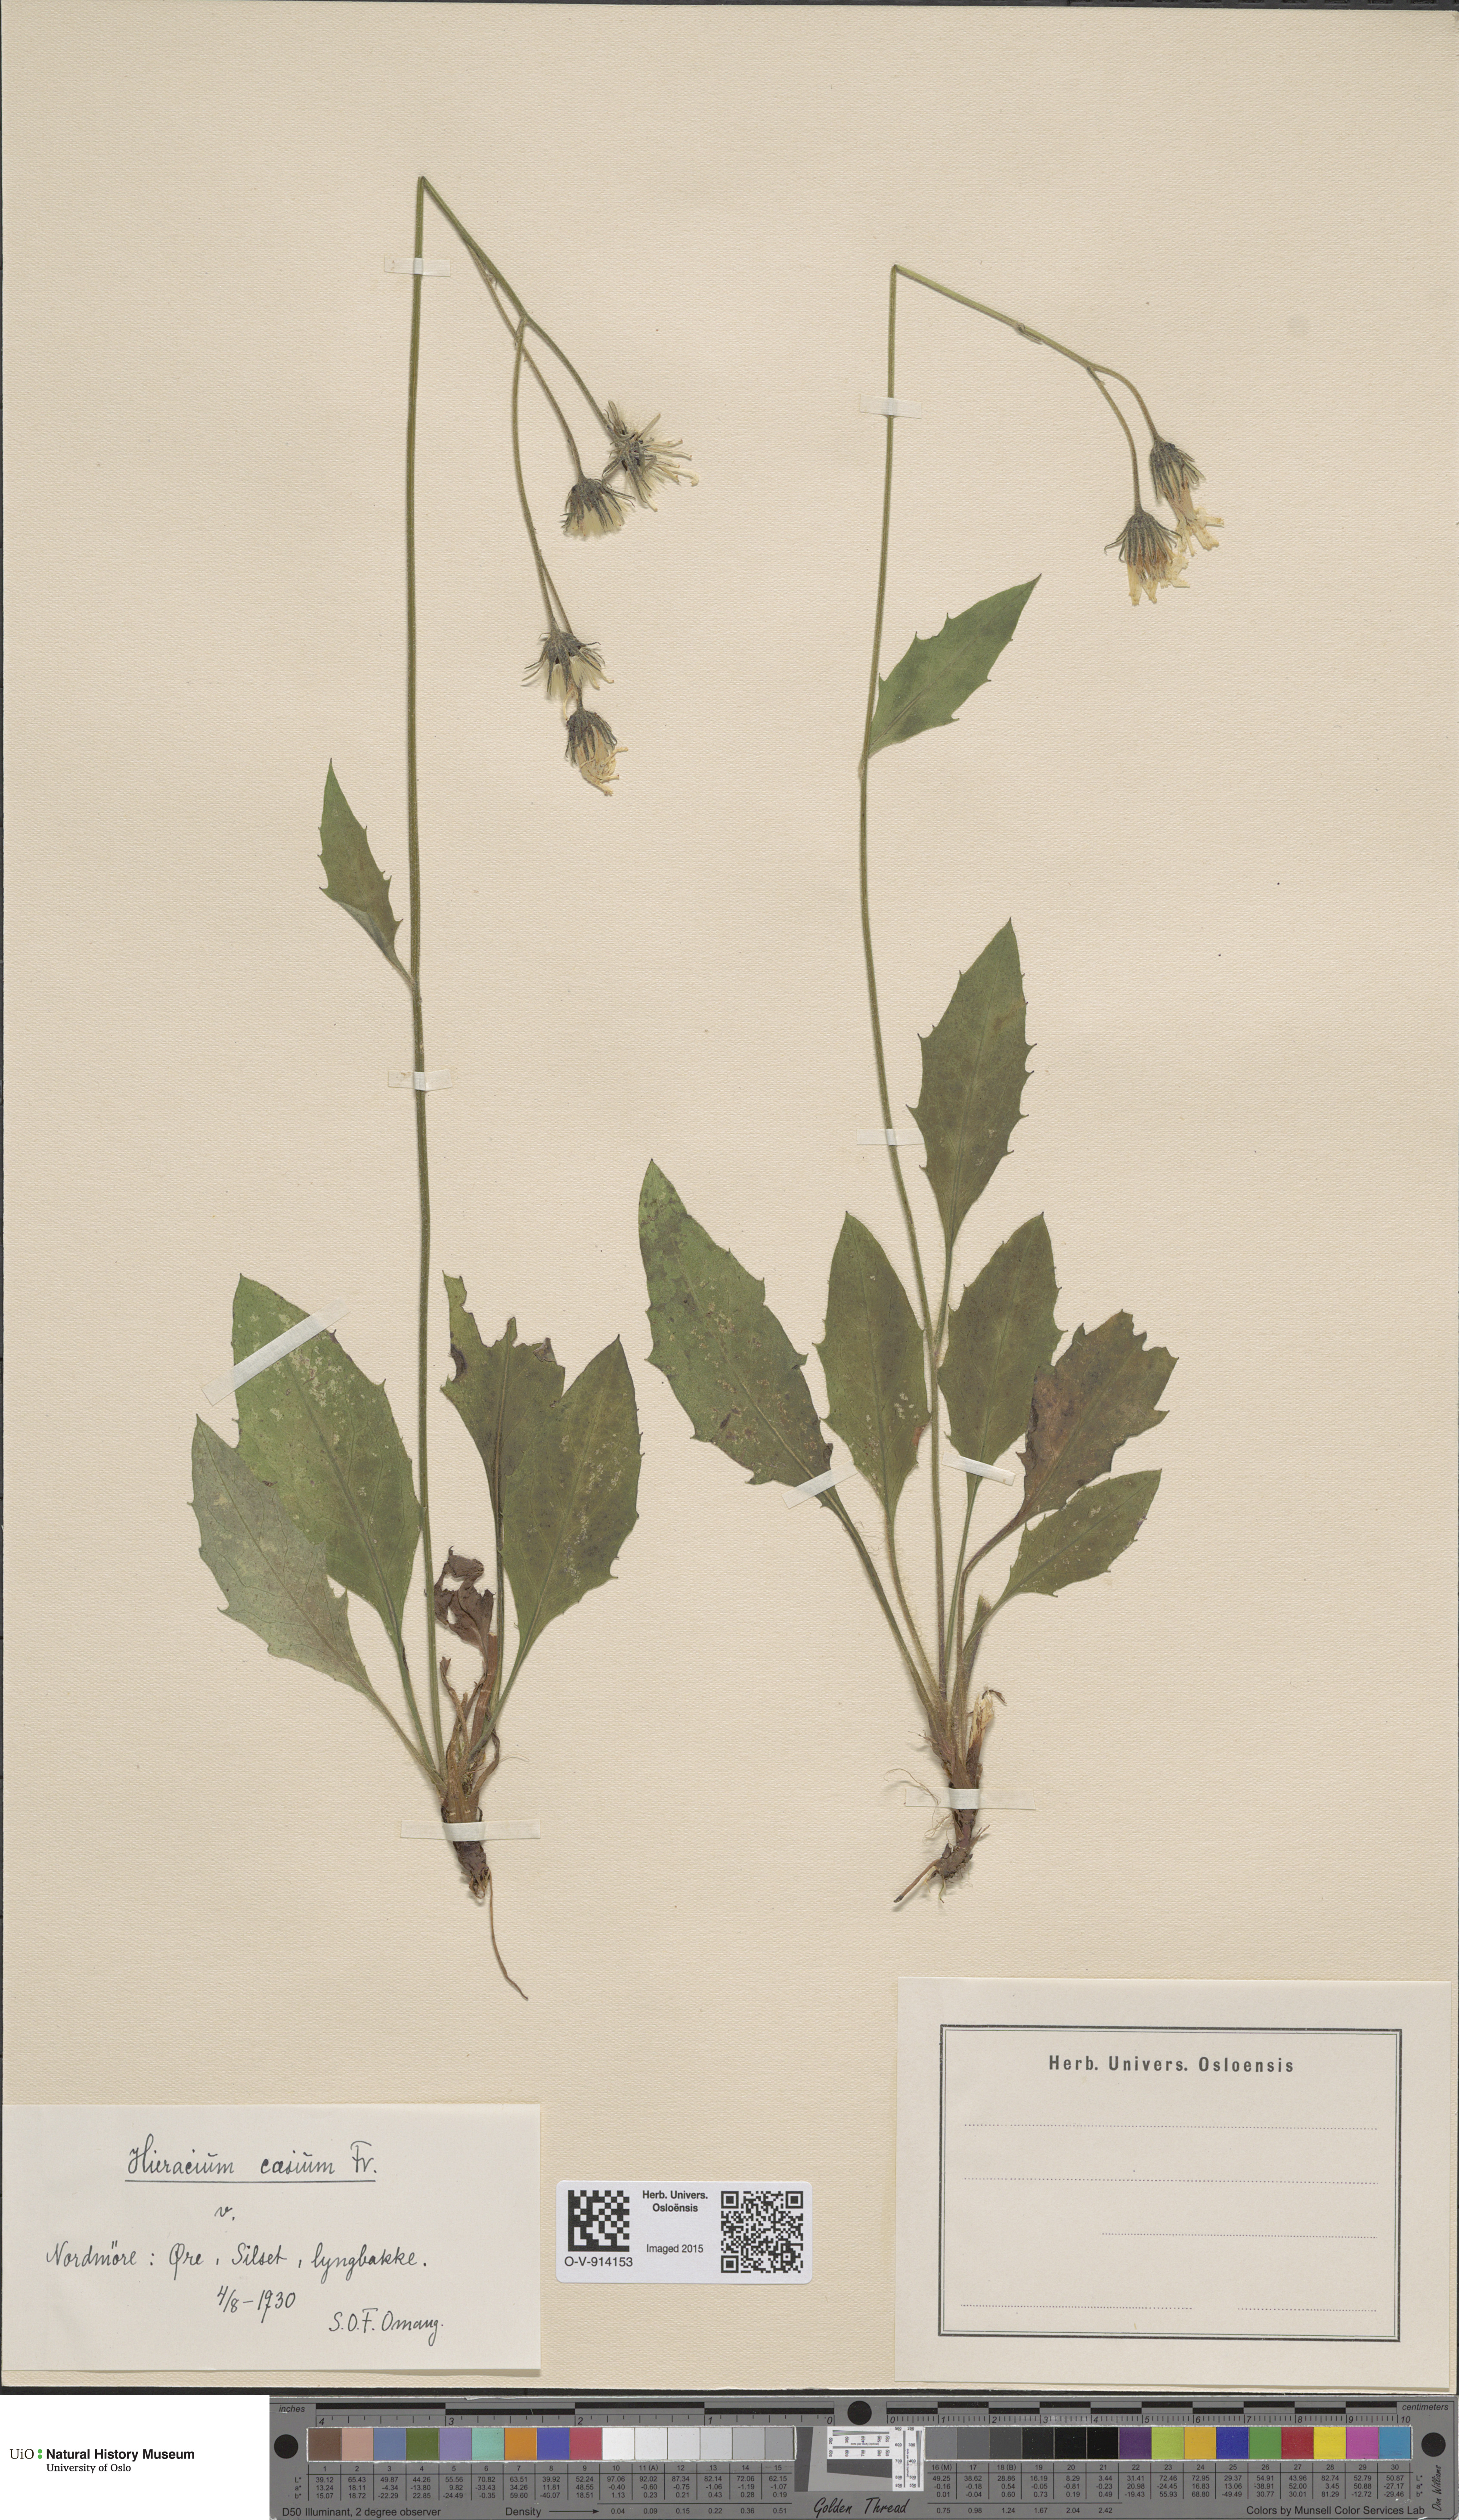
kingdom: Plantae
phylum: Tracheophyta
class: Magnoliopsida
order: Asterales
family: Asteraceae
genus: Hieracium
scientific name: Hieracium caesium
